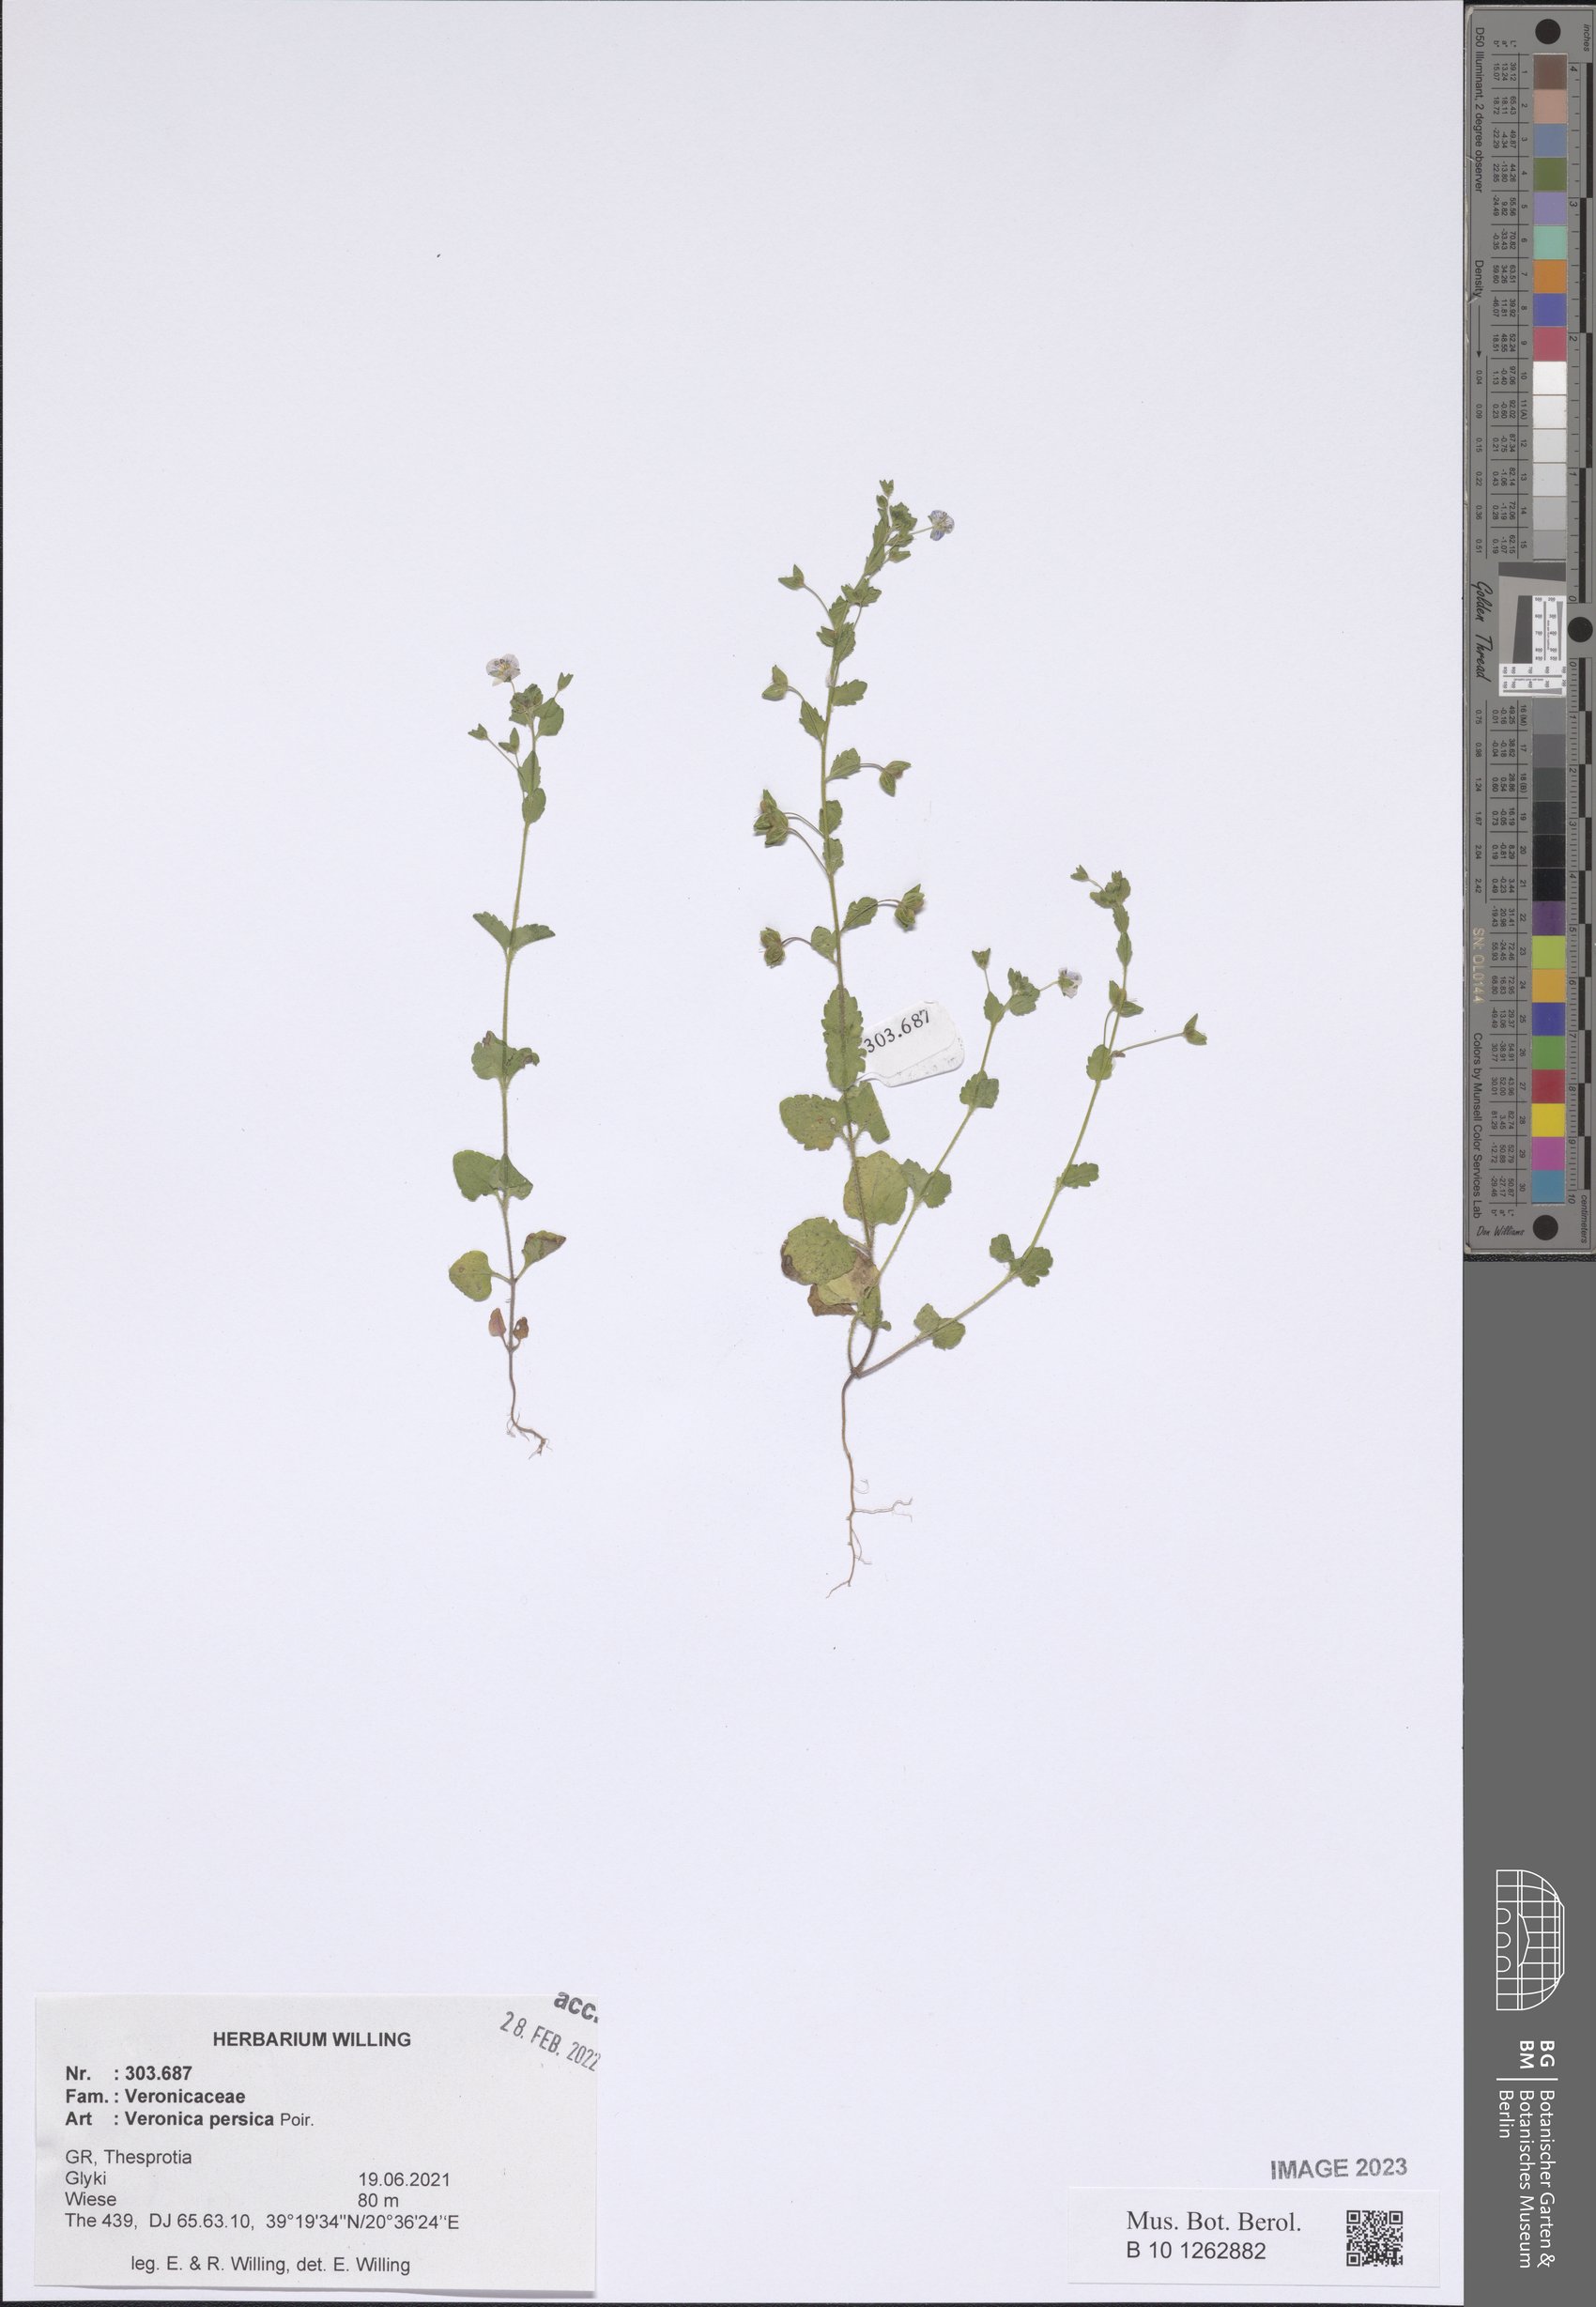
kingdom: Plantae
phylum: Tracheophyta
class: Magnoliopsida
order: Lamiales
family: Plantaginaceae
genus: Veronica
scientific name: Veronica persica
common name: Common field-speedwell
